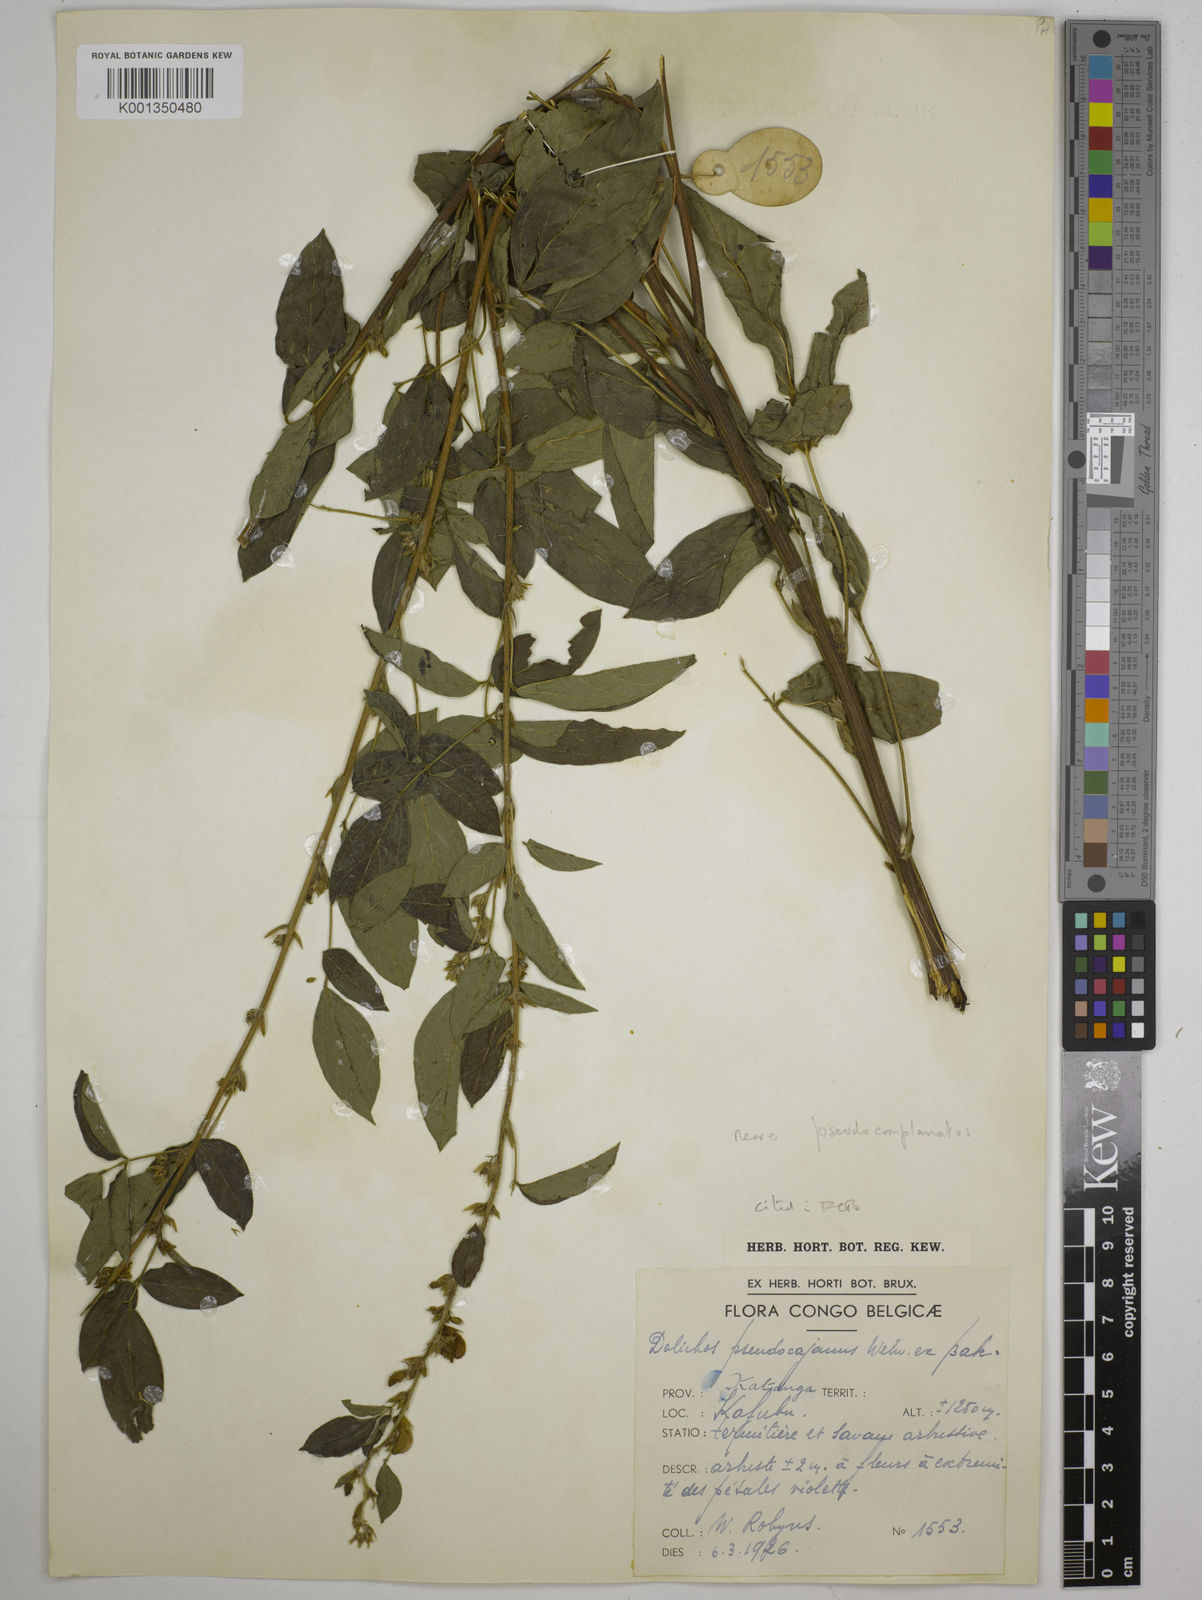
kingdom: Plantae
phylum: Tracheophyta
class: Magnoliopsida
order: Fabales
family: Fabaceae
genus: Dolichos
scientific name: Dolichos pseudocajanus
